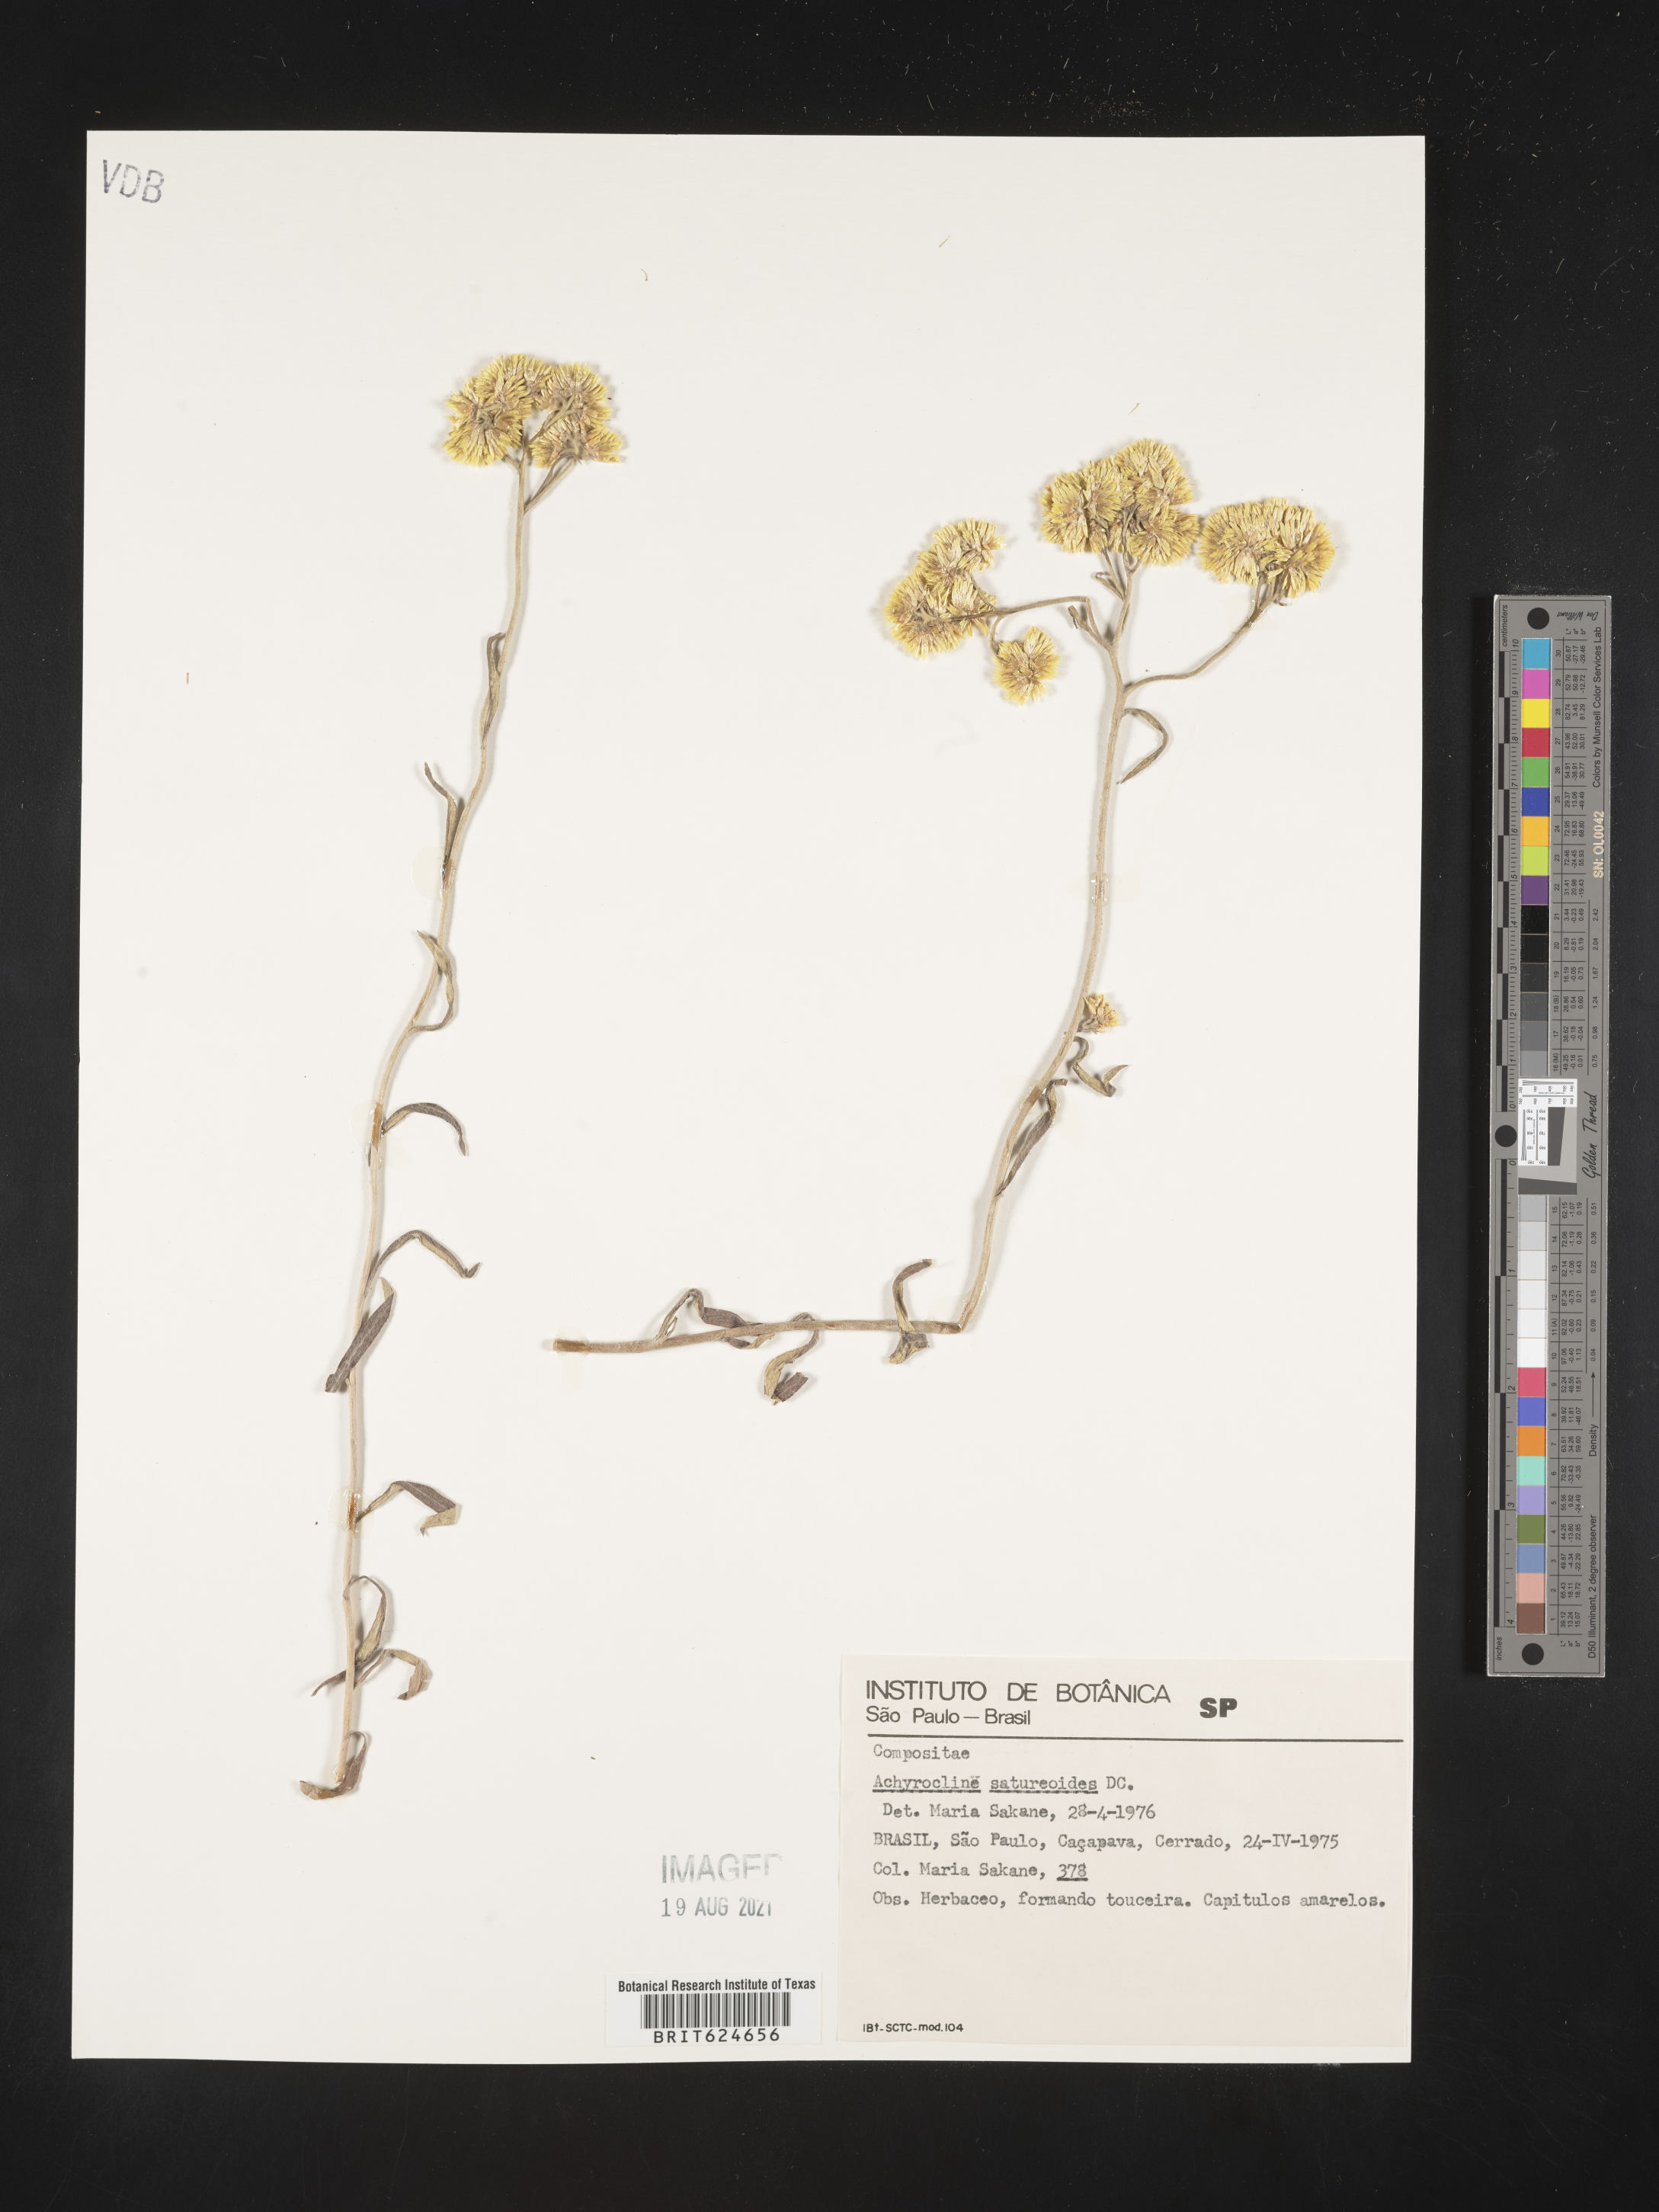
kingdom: Plantae
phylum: Tracheophyta
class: Magnoliopsida
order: Asterales
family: Asteraceae
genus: Achyrocline
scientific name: Achyrocline satureioides
